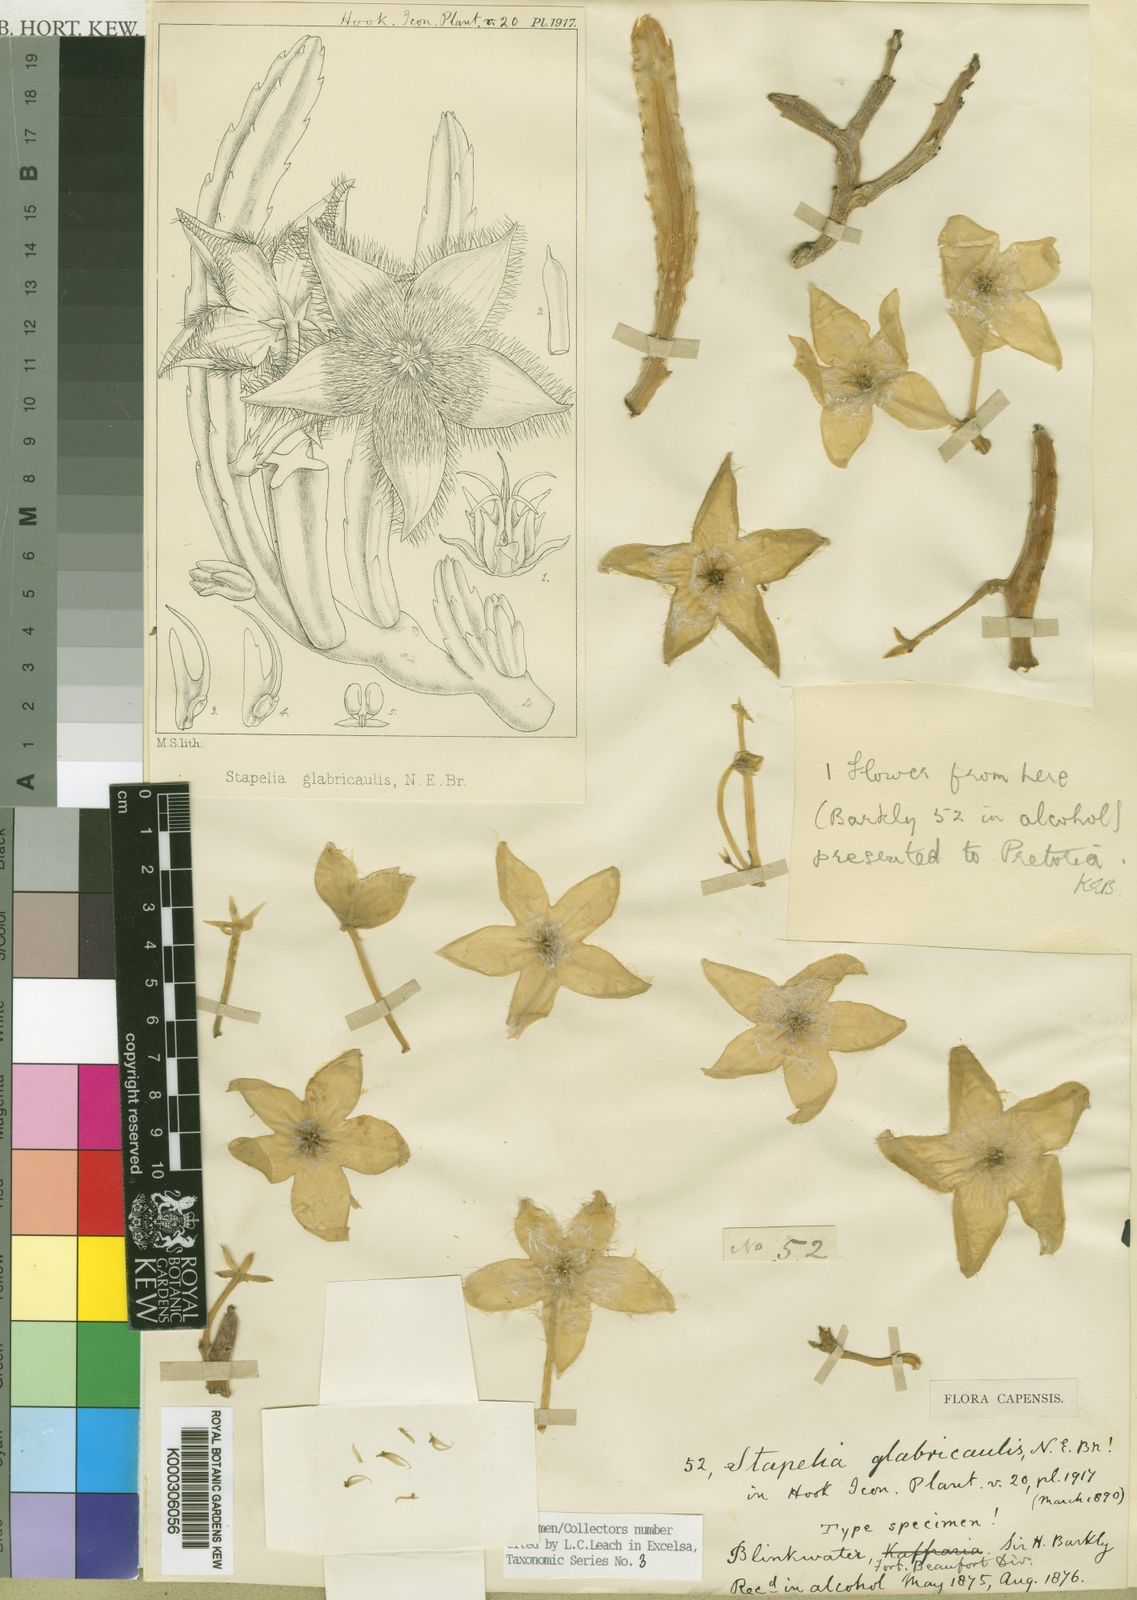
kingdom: Plantae
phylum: Tracheophyta
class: Magnoliopsida
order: Gentianales
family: Apocynaceae
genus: Ceropegia
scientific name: Ceropegia pulvinata
